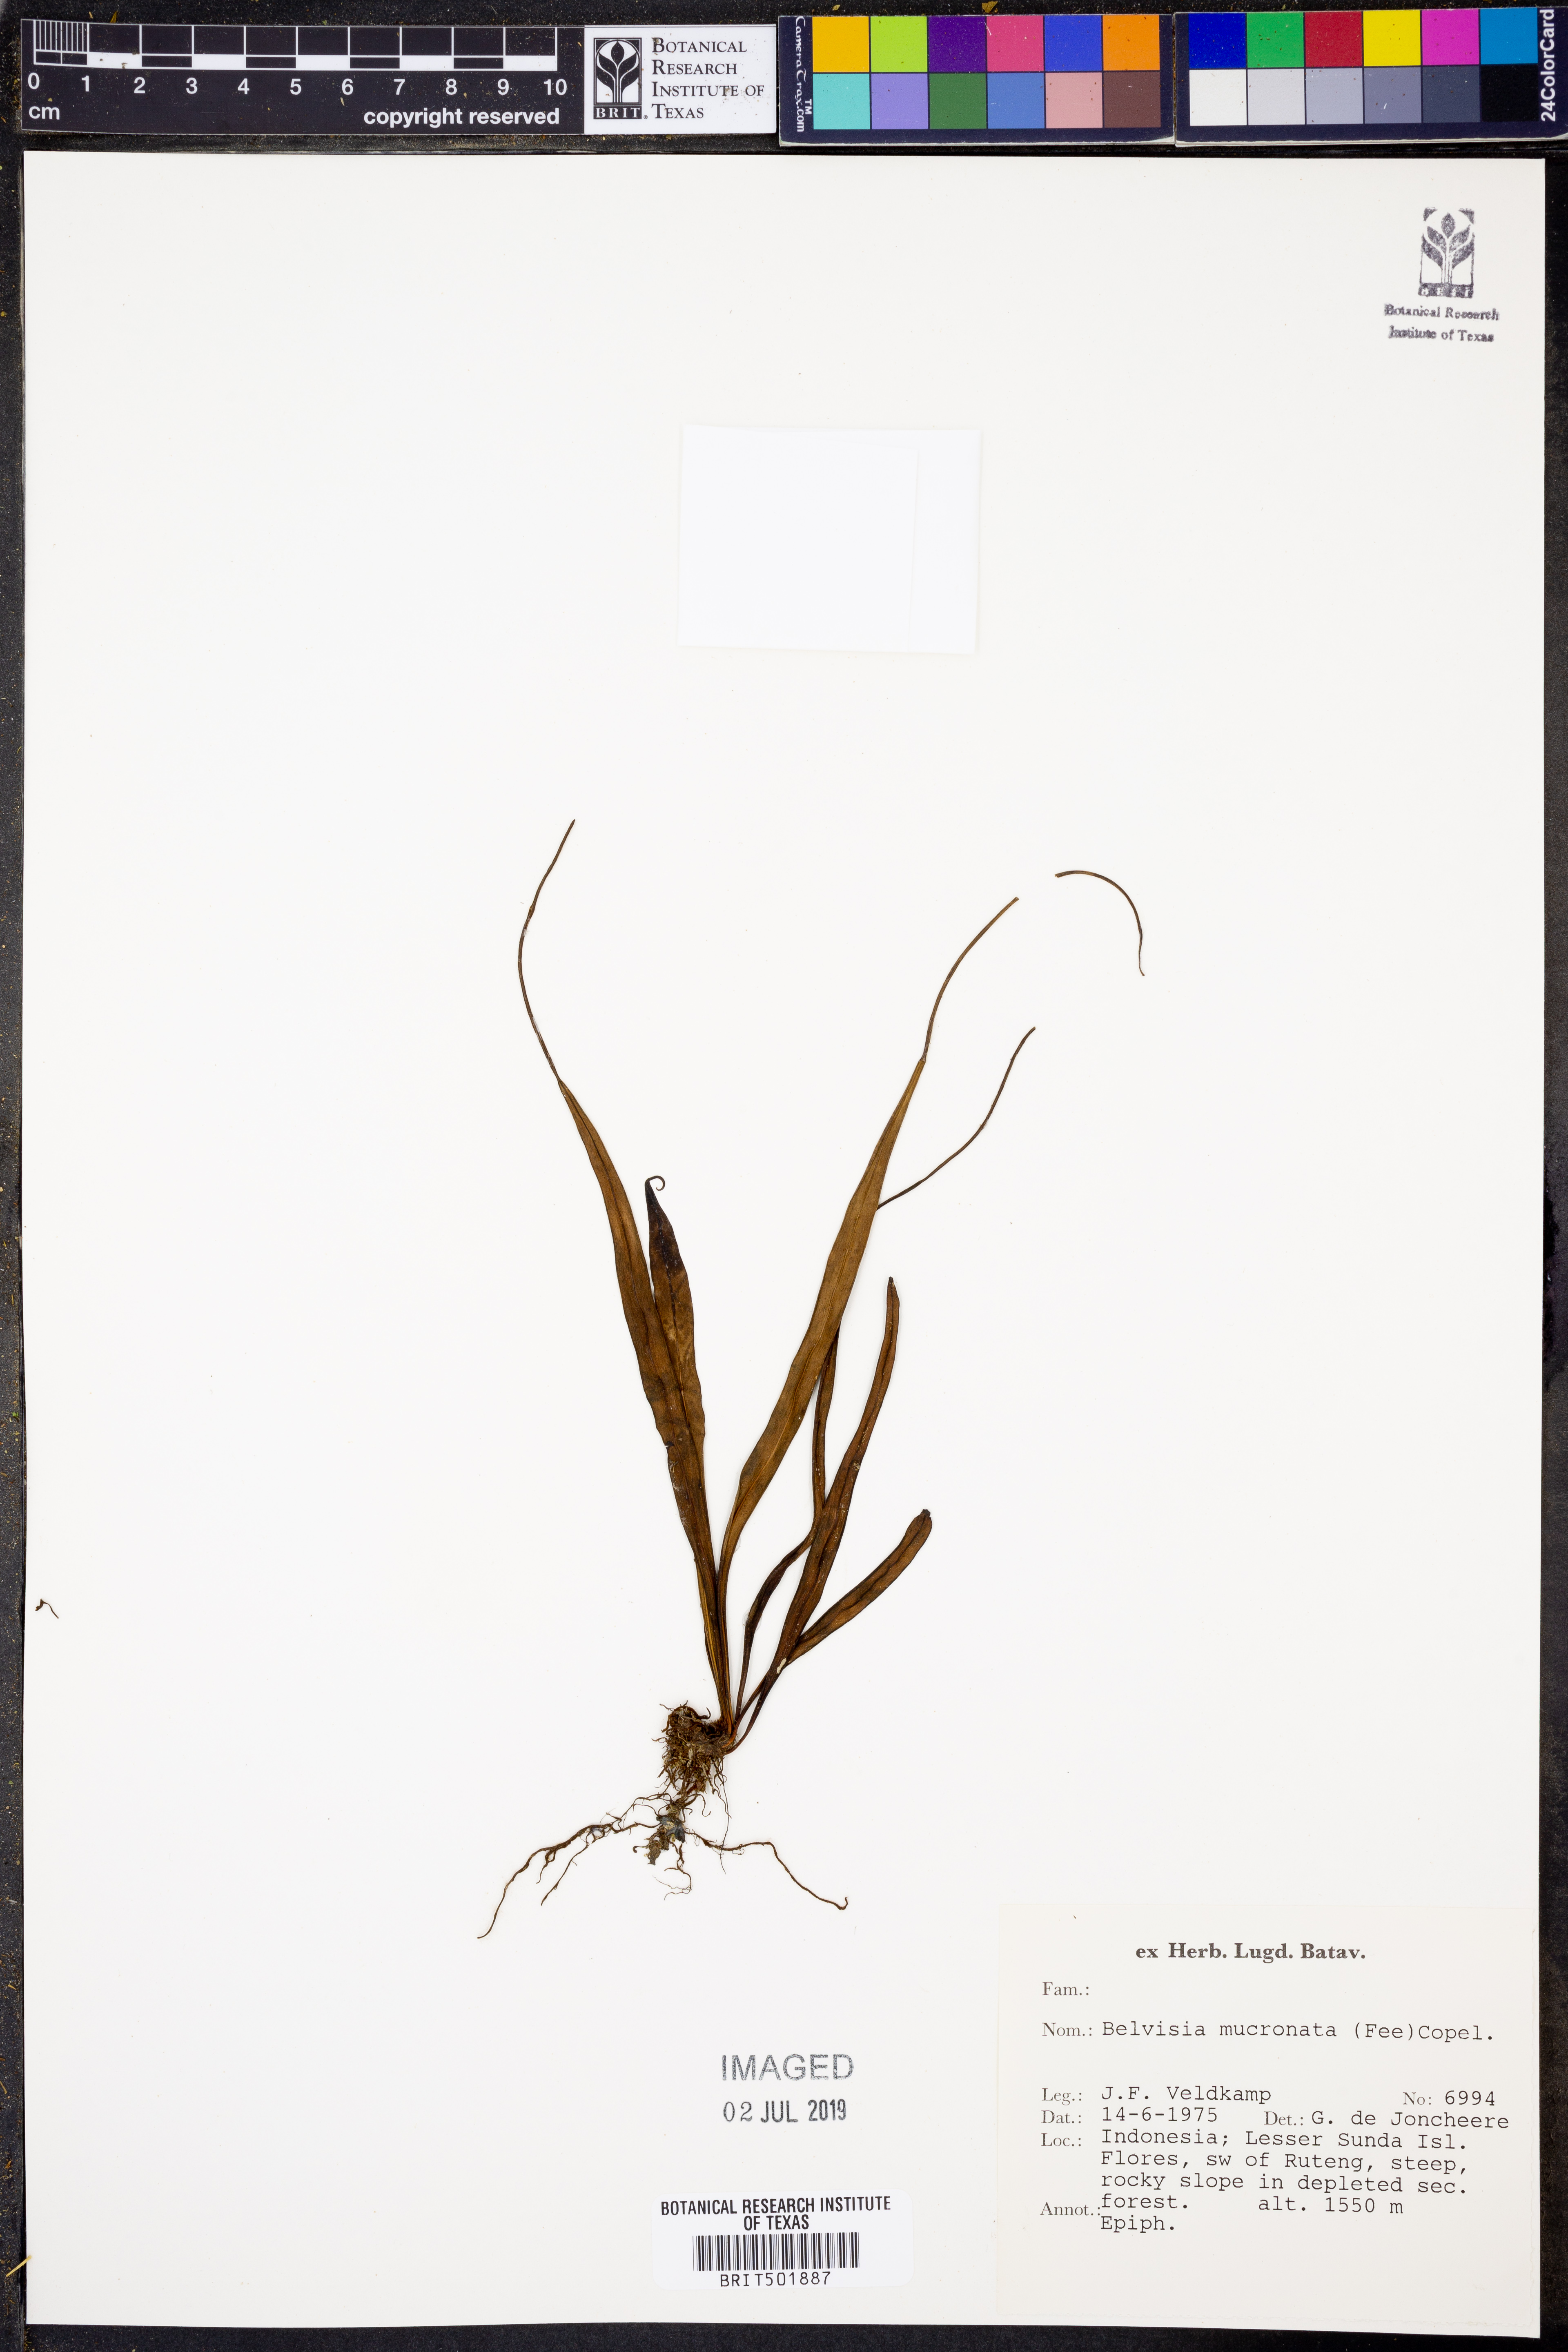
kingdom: Plantae
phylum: Tracheophyta
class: Polypodiopsida
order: Polypodiales
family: Polypodiaceae
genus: Lepisorus
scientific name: Lepisorus mucronatus
